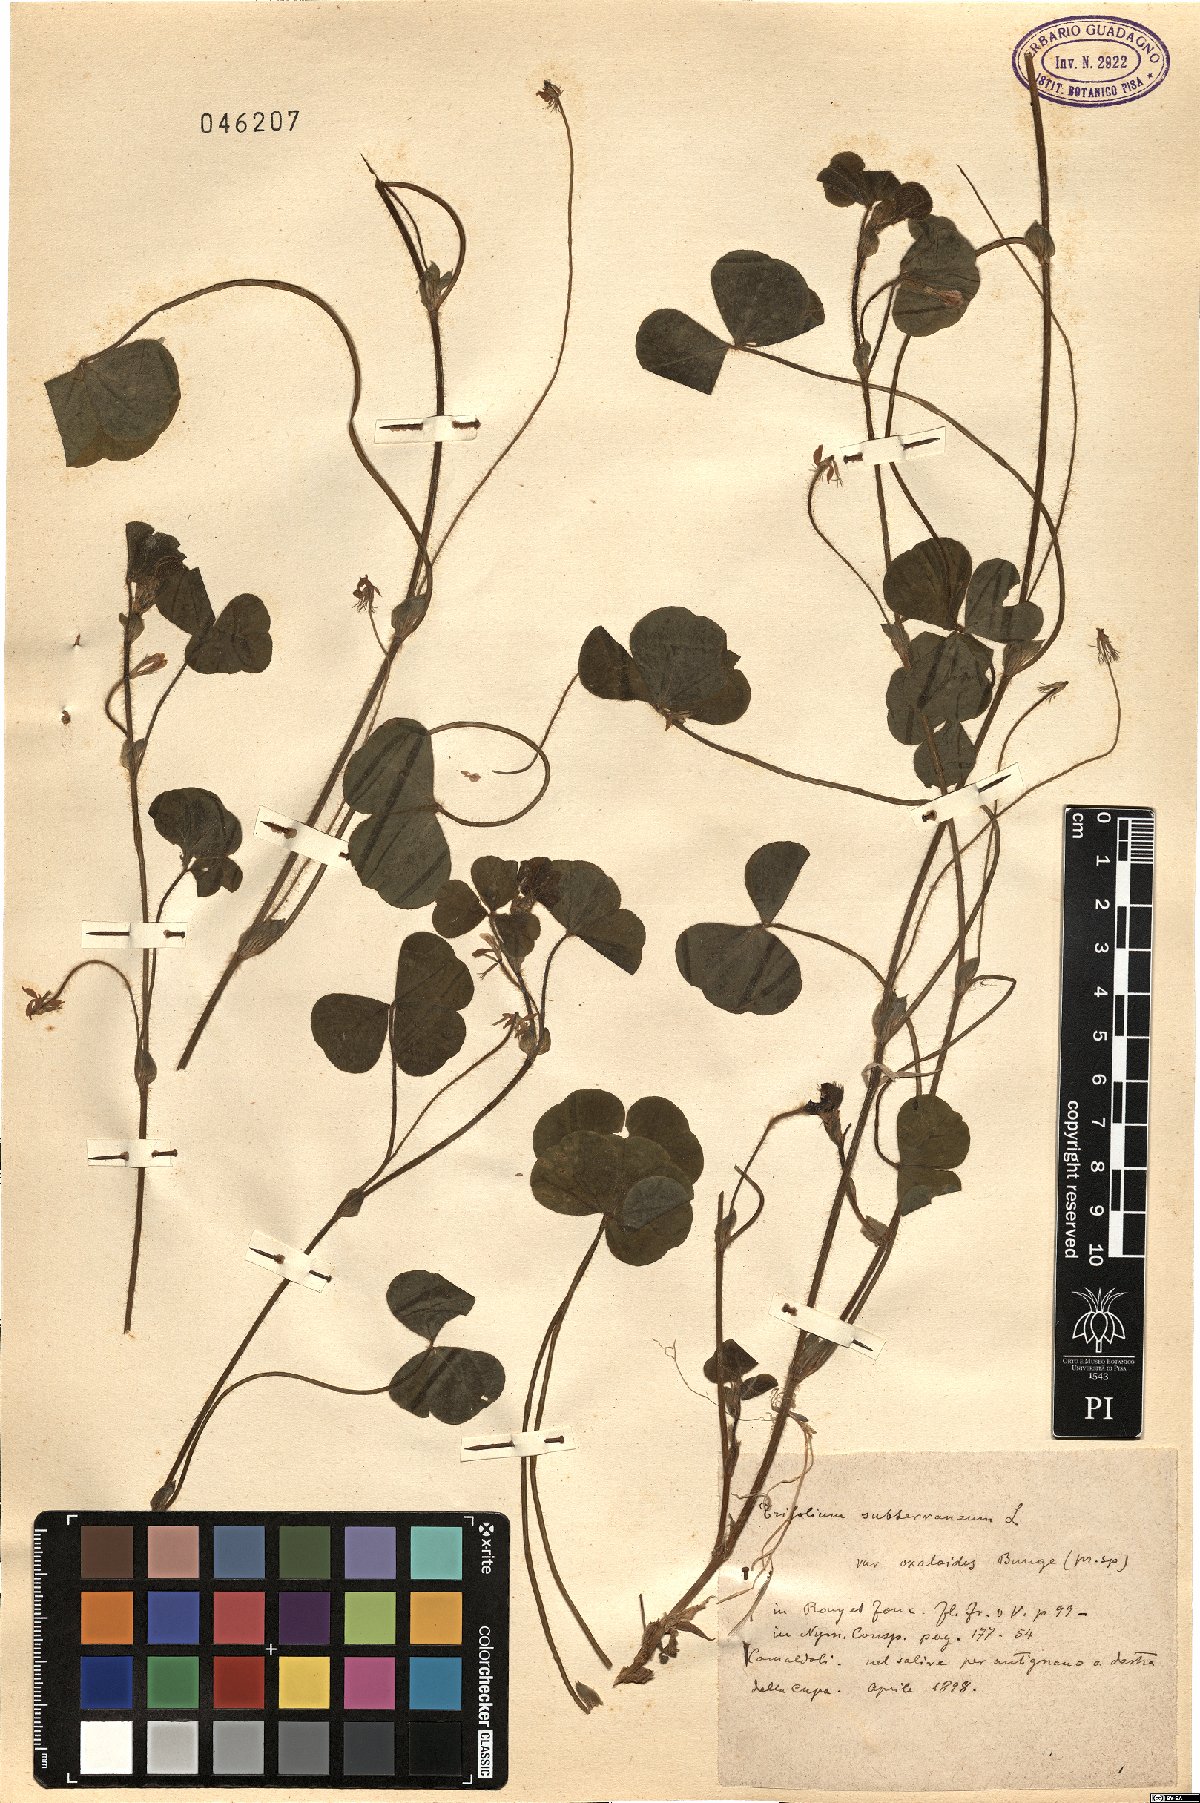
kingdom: Plantae
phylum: Tracheophyta
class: Magnoliopsida
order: Fabales
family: Fabaceae
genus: Trifolium
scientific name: Trifolium subterraneum
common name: Subterranean clover
